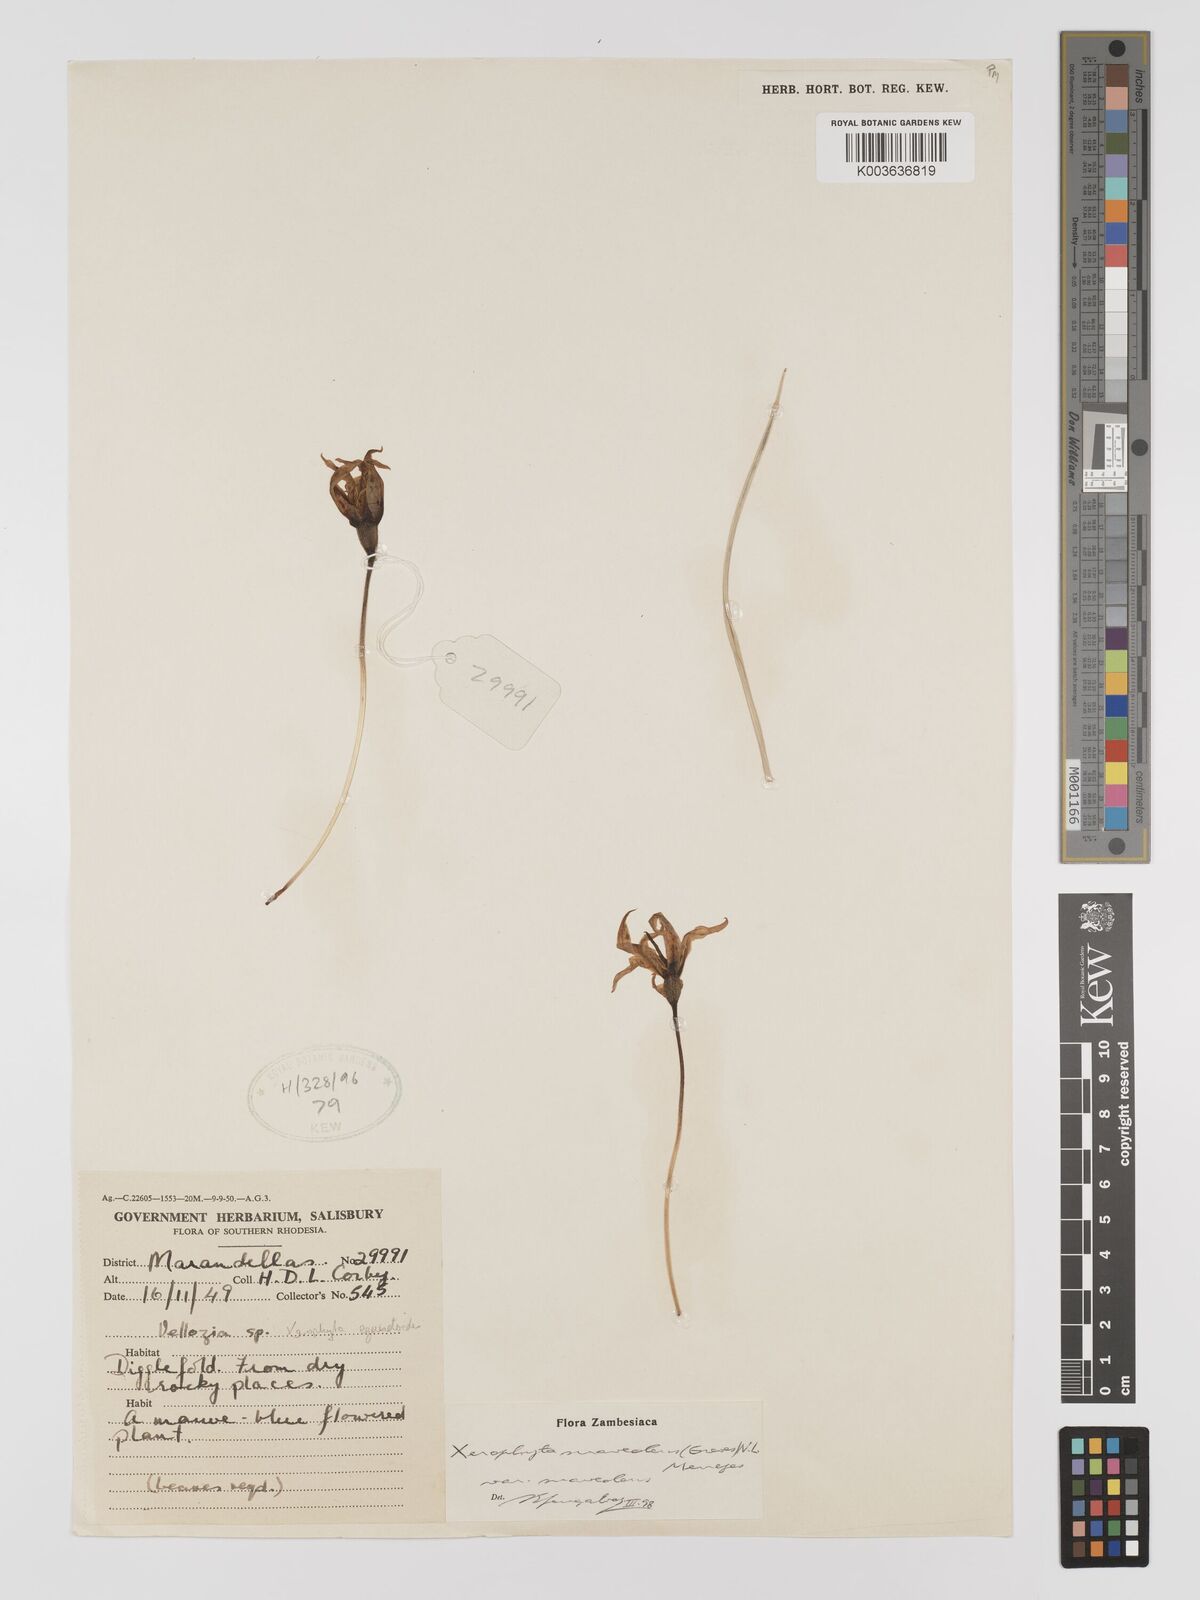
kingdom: Plantae
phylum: Tracheophyta
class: Liliopsida
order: Pandanales
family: Velloziaceae
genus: Xerophyta
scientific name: Xerophyta suaveolens
